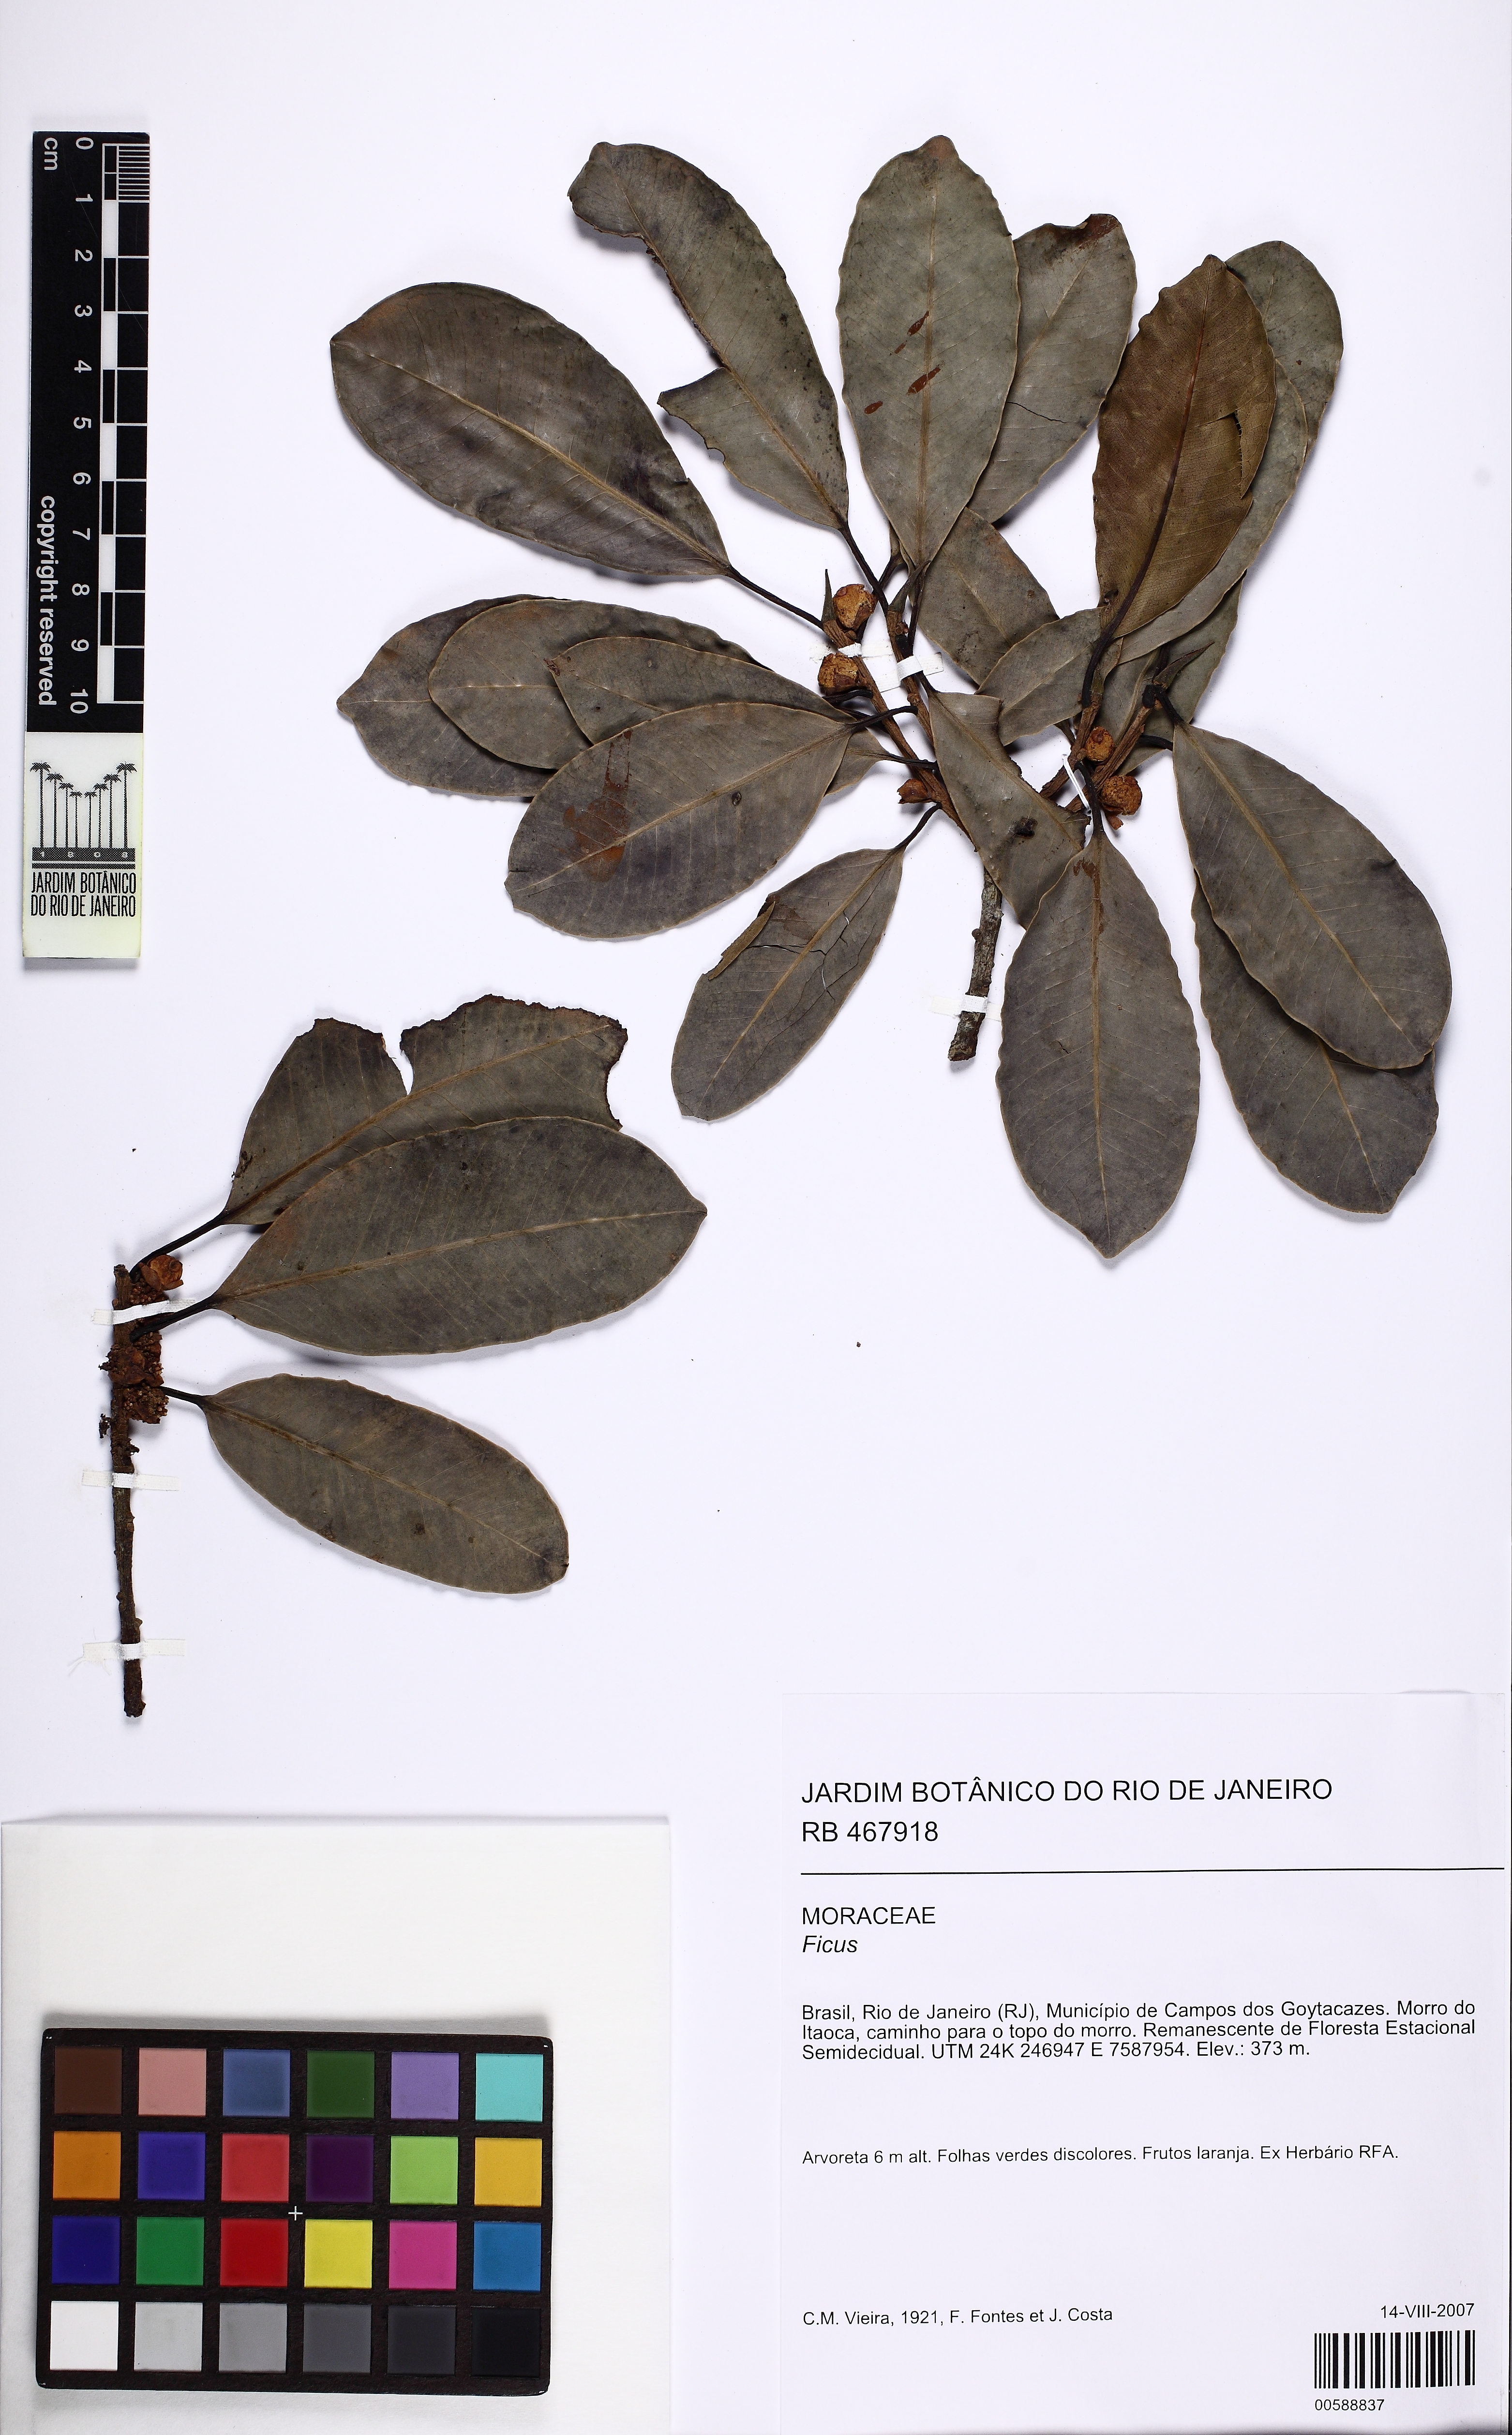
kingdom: Plantae
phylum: Tracheophyta
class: Magnoliopsida
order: Rosales
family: Moraceae
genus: Ficus
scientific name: Ficus americana
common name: Jamaican cherry fig
